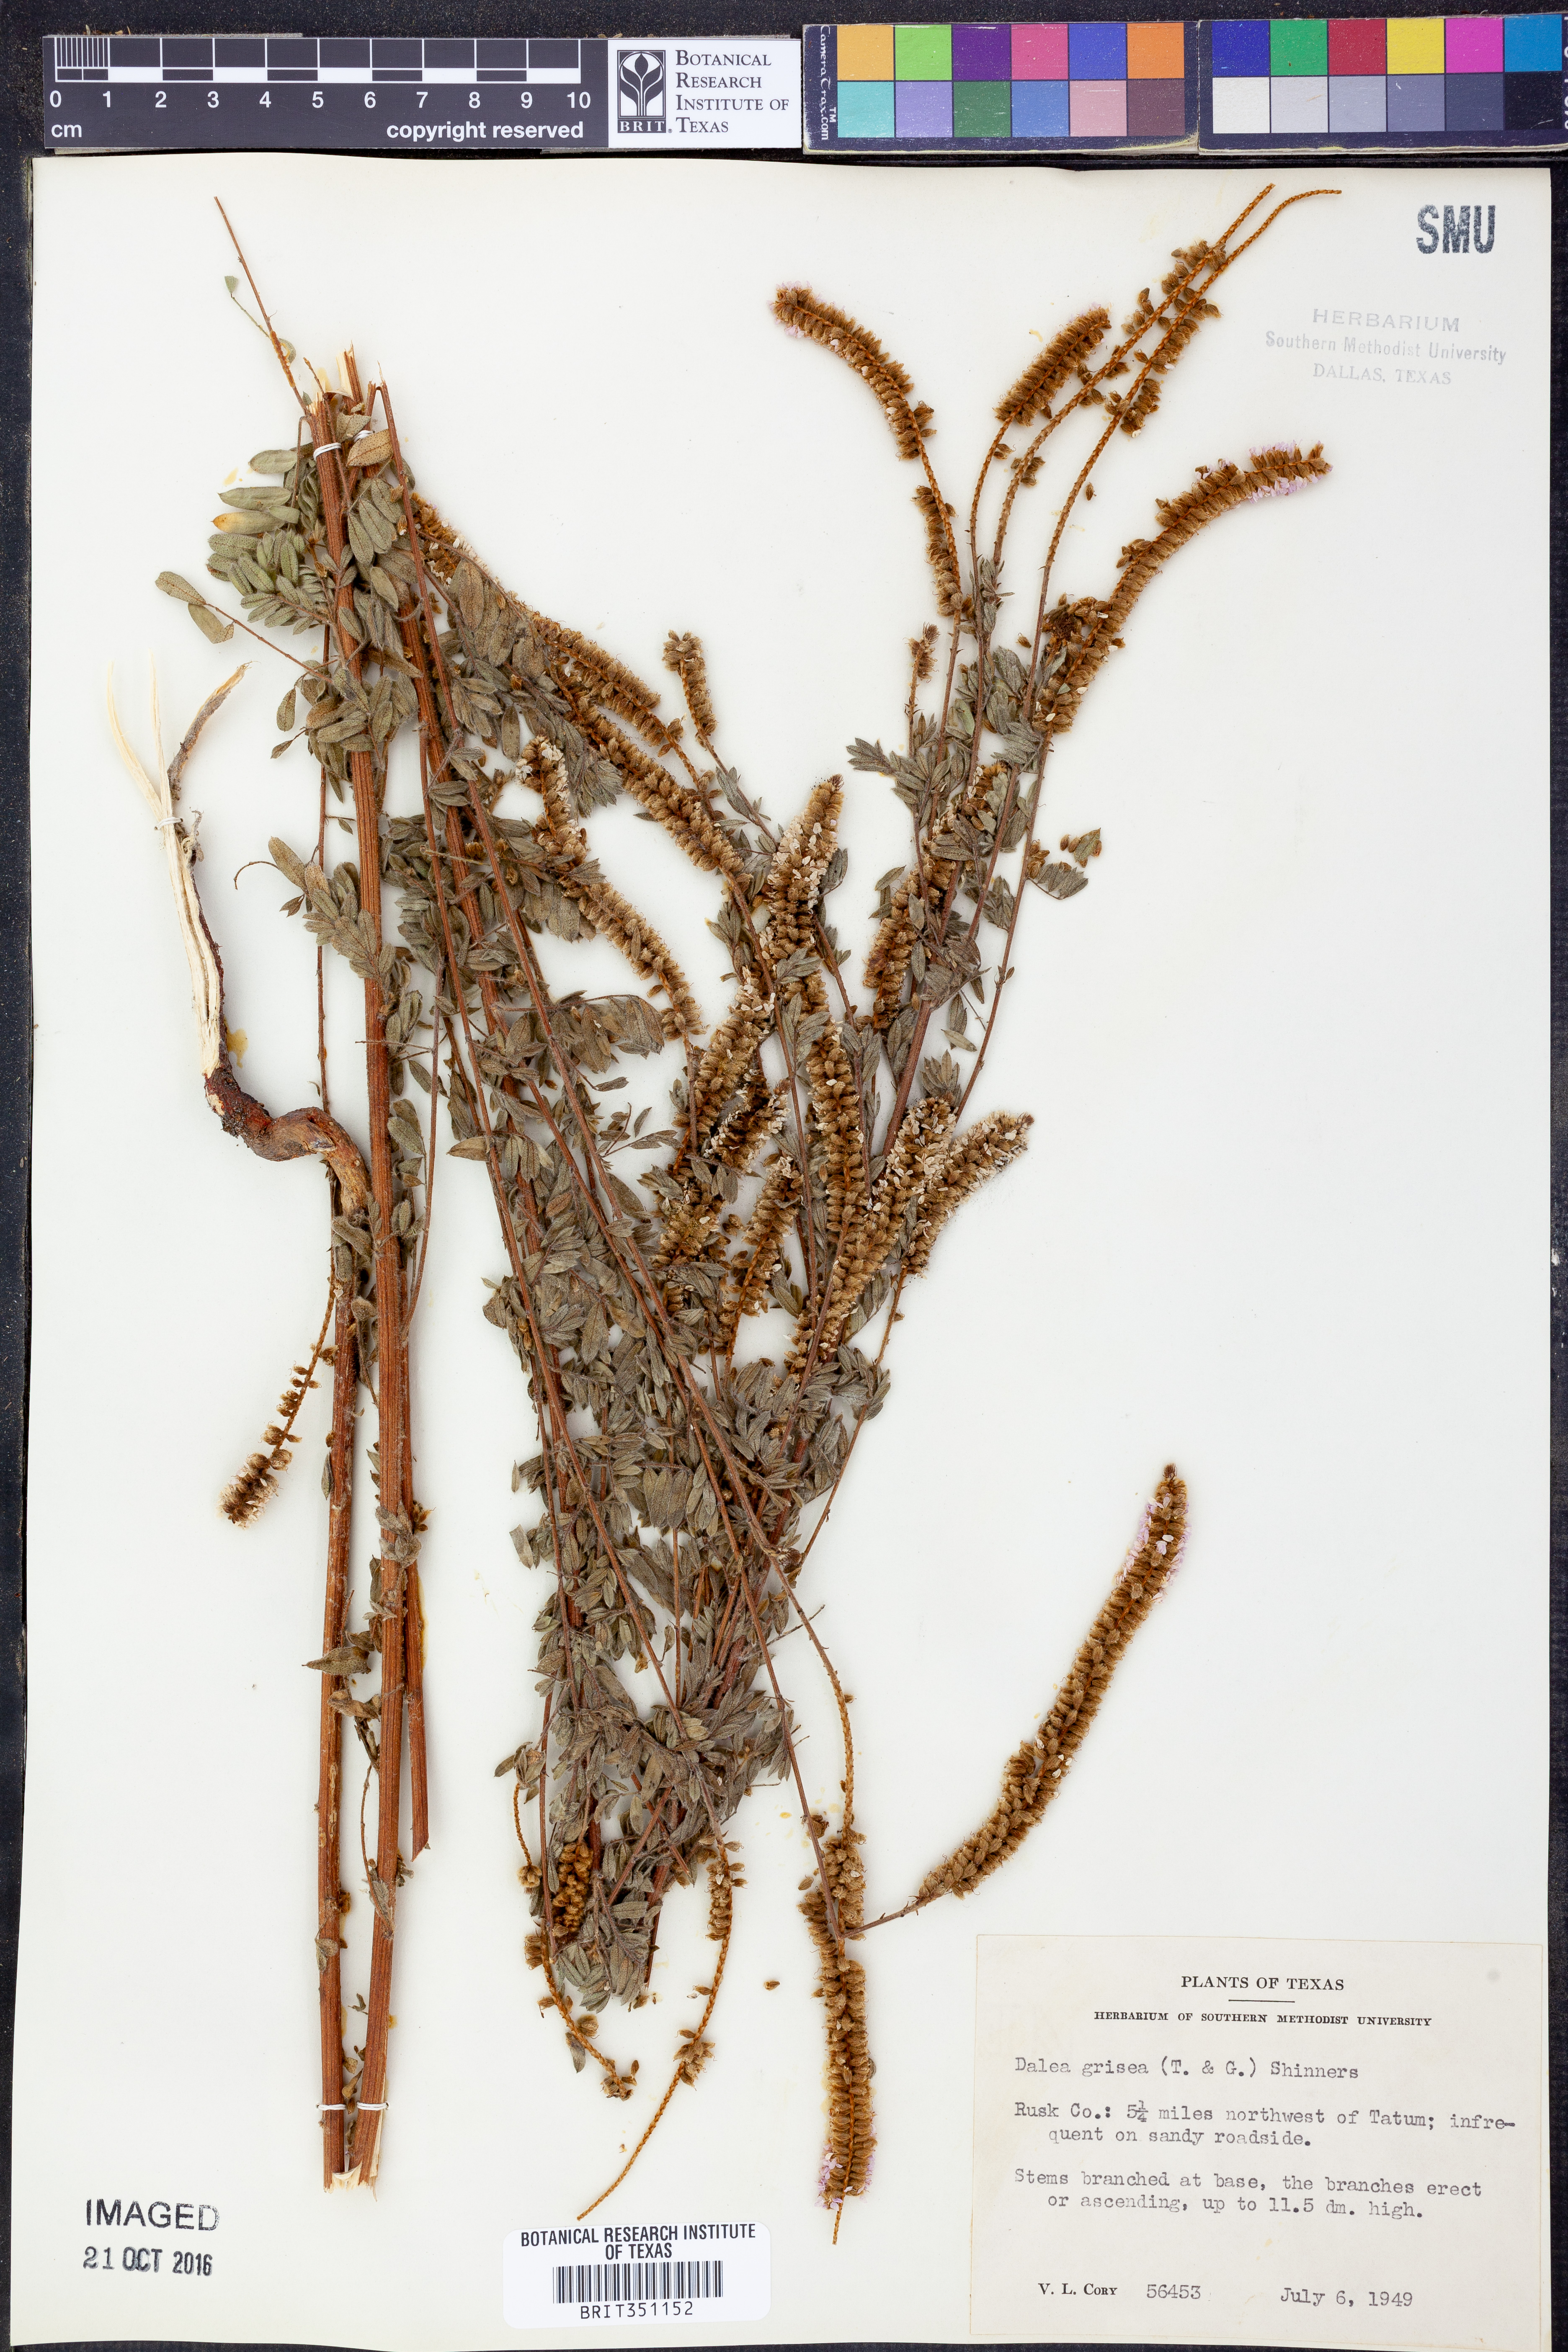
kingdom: Plantae
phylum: Tracheophyta
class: Magnoliopsida
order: Fabales
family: Fabaceae
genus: Dalea
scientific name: Dalea villosa
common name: Silky prairie-clover
